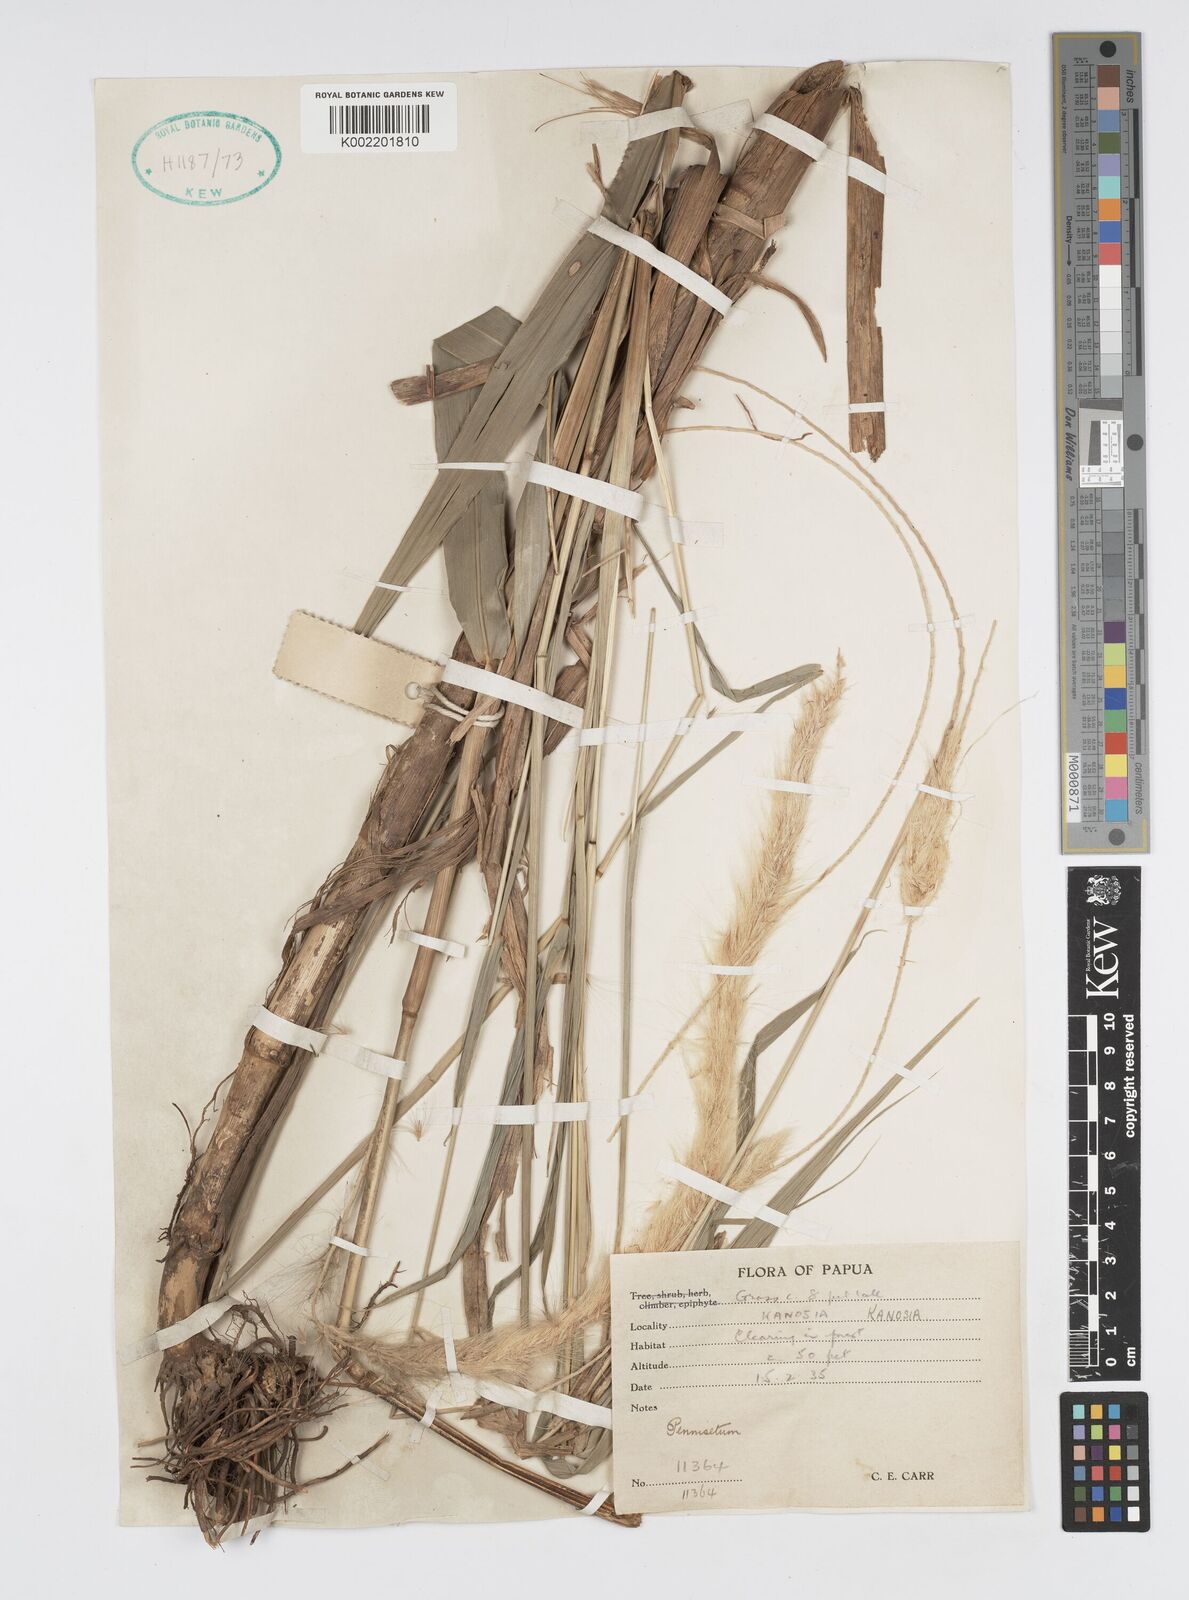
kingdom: Plantae
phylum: Tracheophyta
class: Liliopsida
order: Poales
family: Poaceae
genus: Cenchrus
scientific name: Cenchrus purpureus
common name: Elephant grass
